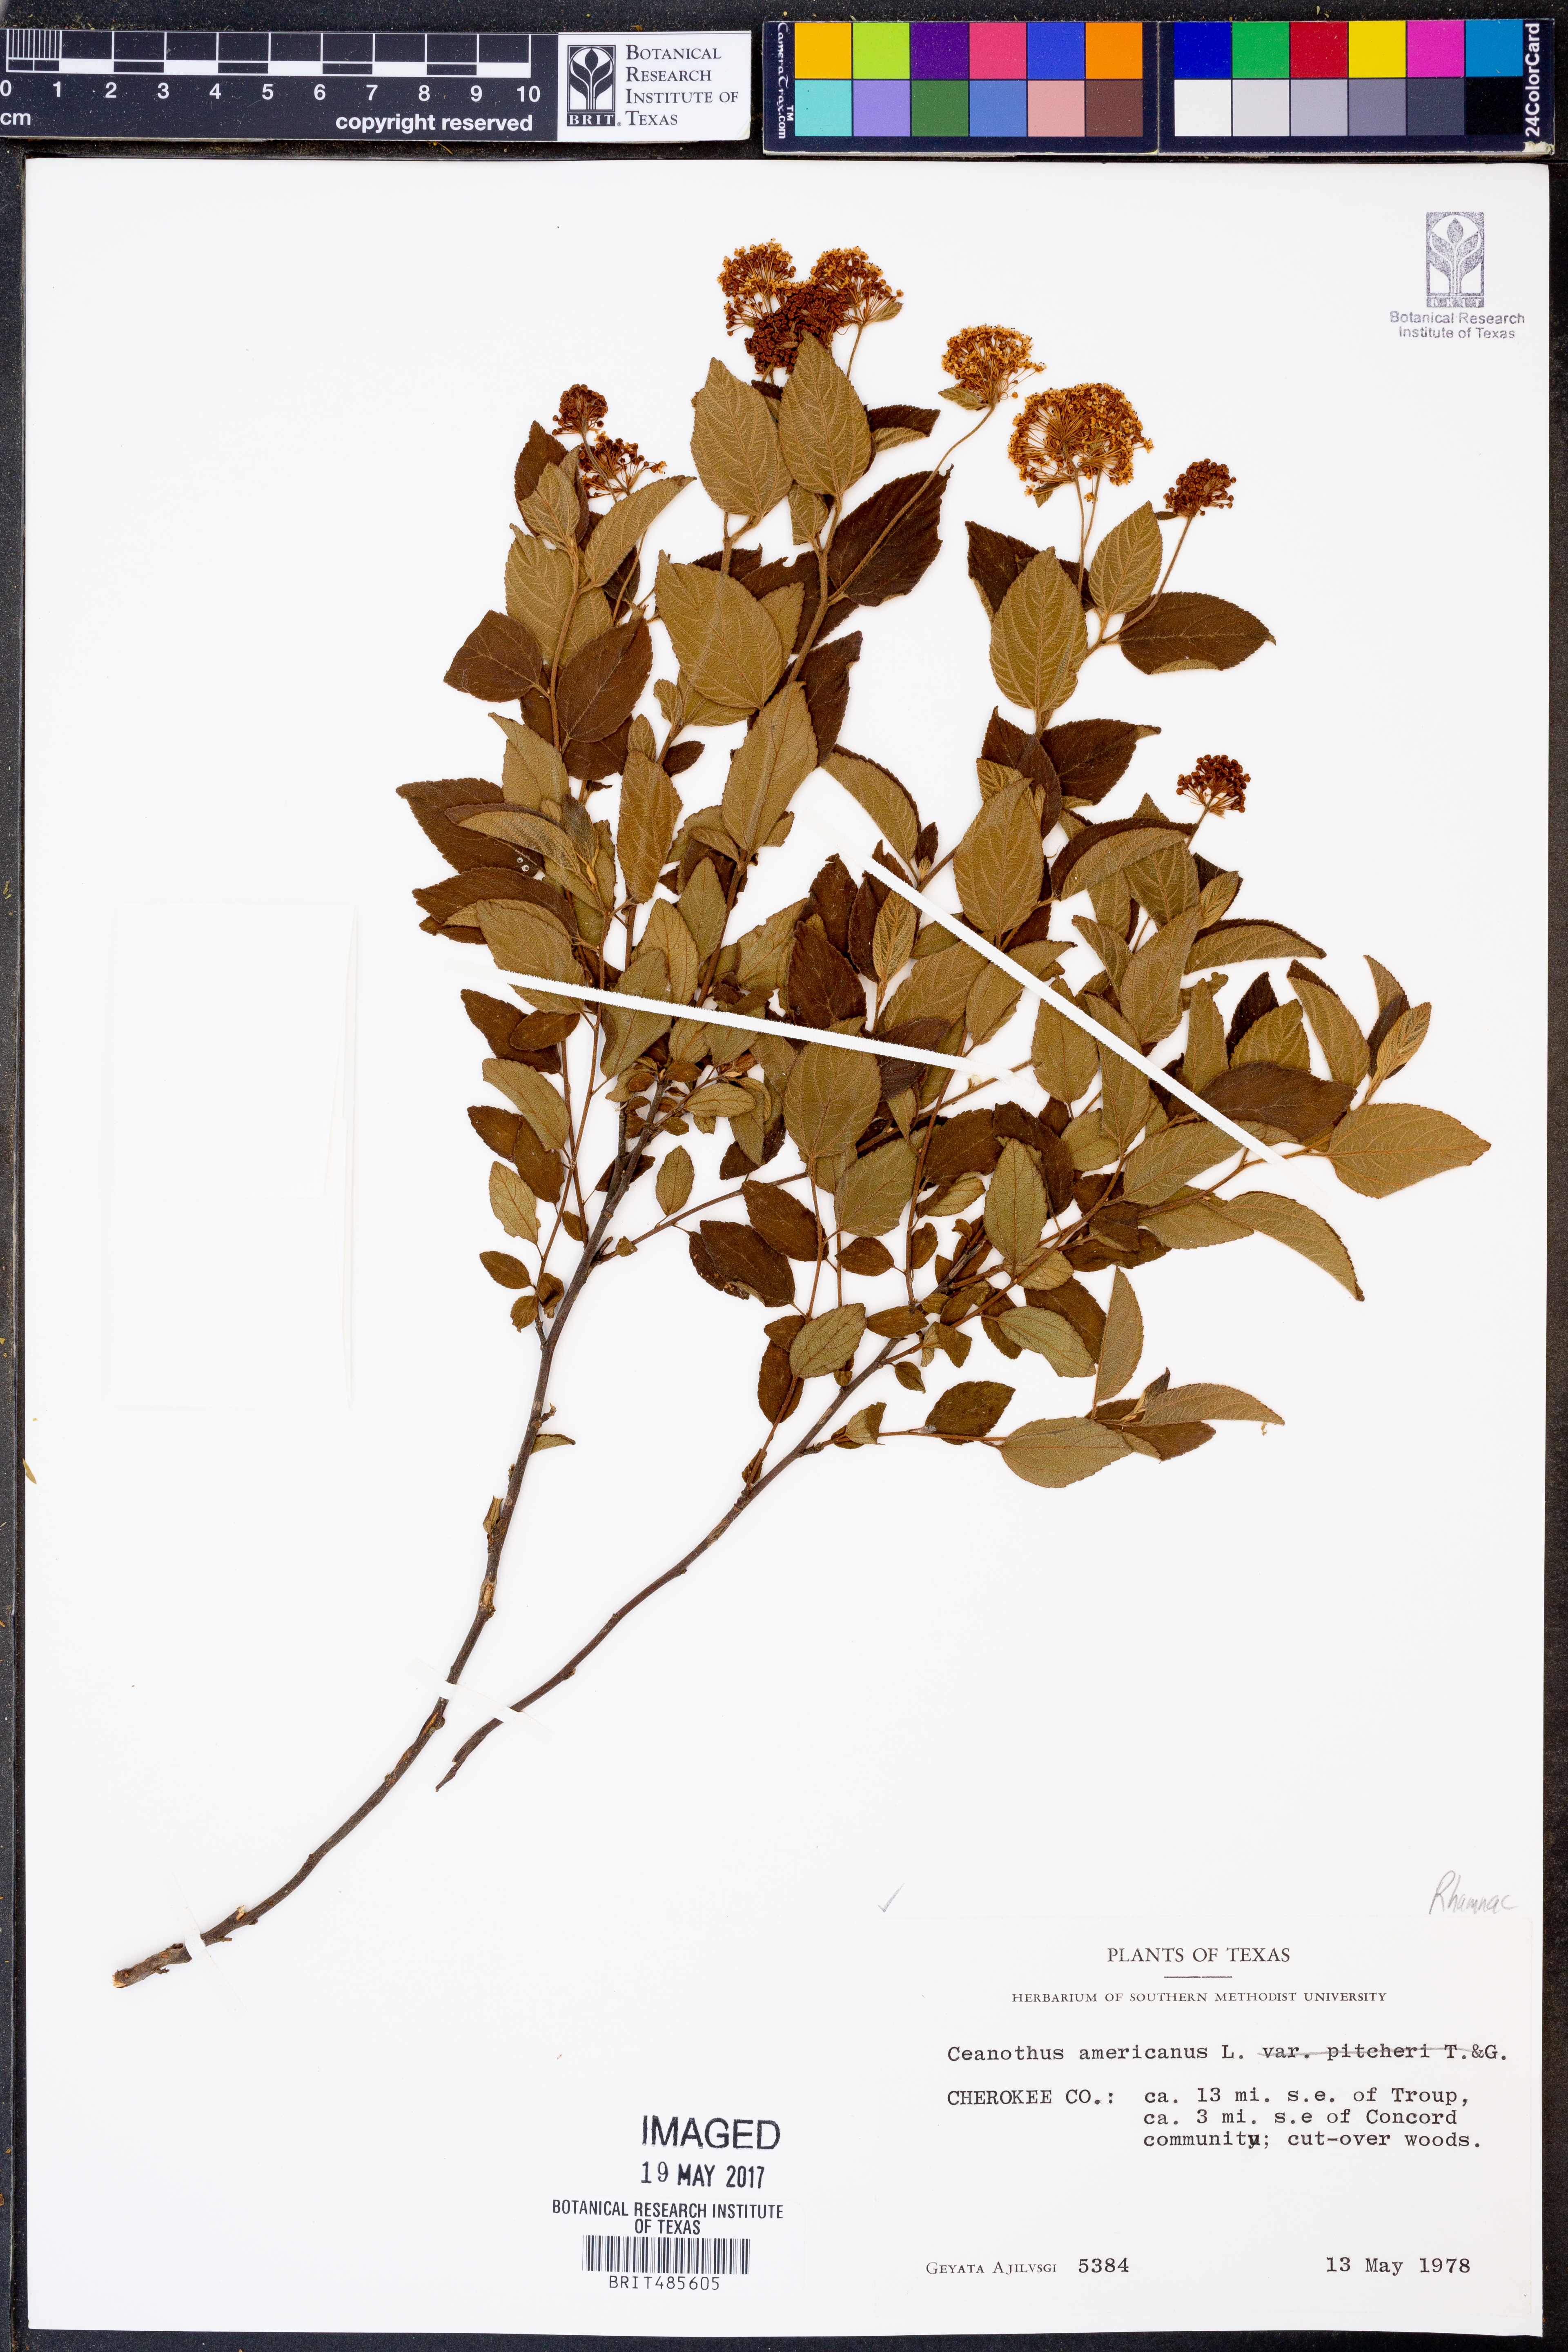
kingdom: Plantae
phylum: Tracheophyta
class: Magnoliopsida
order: Rosales
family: Rhamnaceae
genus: Ceanothus
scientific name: Ceanothus americanus
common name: Redroot
